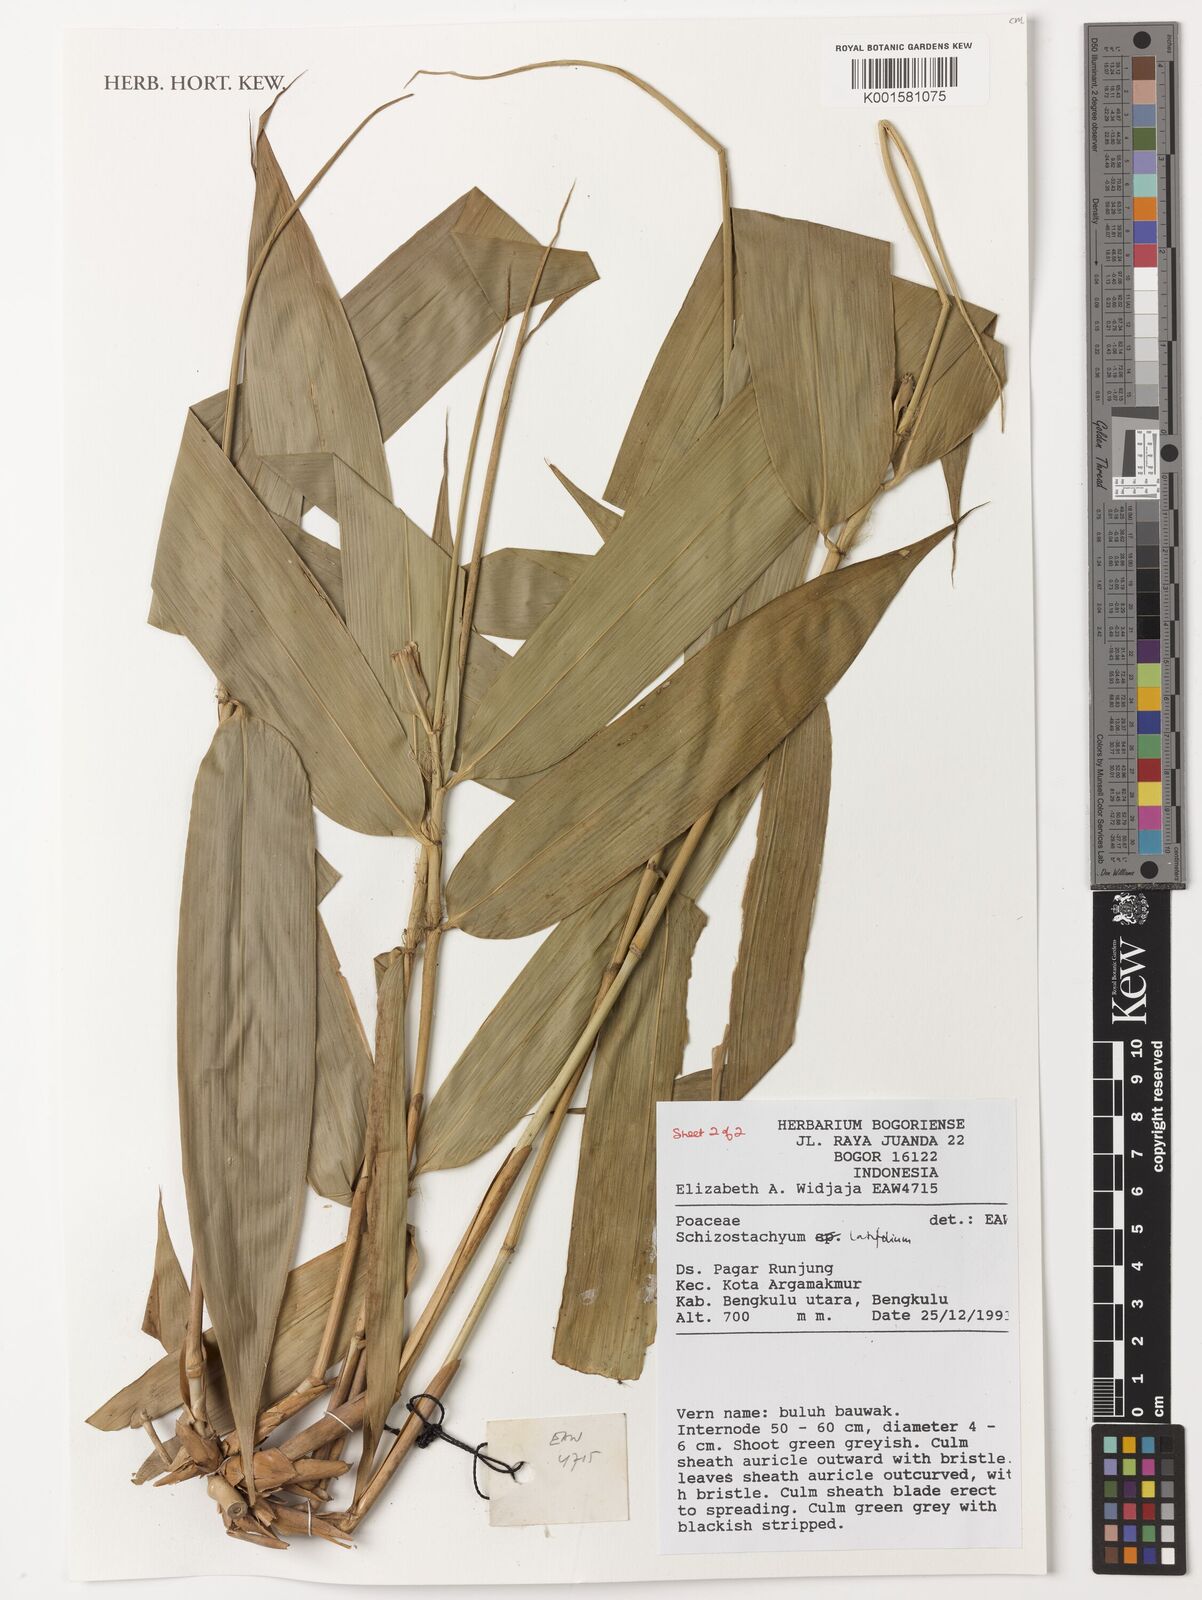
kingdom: Plantae
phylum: Tracheophyta
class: Liliopsida
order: Poales
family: Poaceae
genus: Schizostachyum
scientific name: Schizostachyum latifolium
